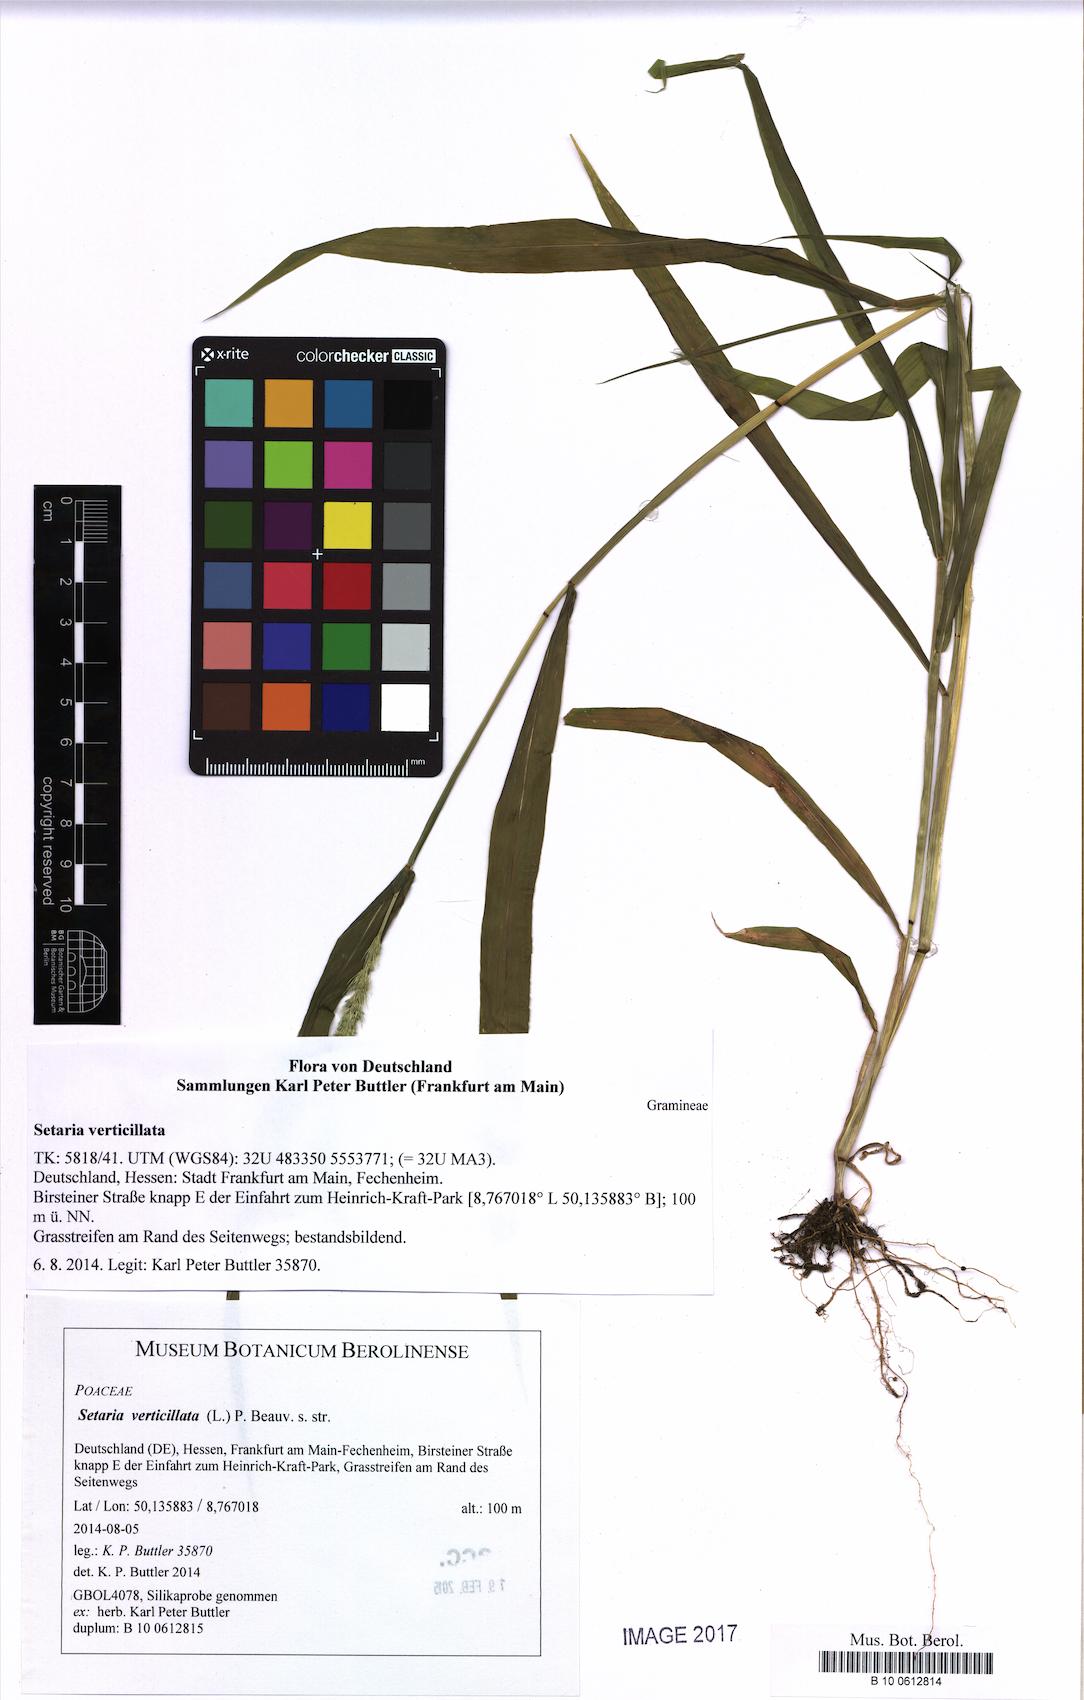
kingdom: Plantae
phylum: Tracheophyta
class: Liliopsida
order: Poales
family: Poaceae
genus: Setaria
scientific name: Setaria verticillata
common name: Hooked bristlegrass
